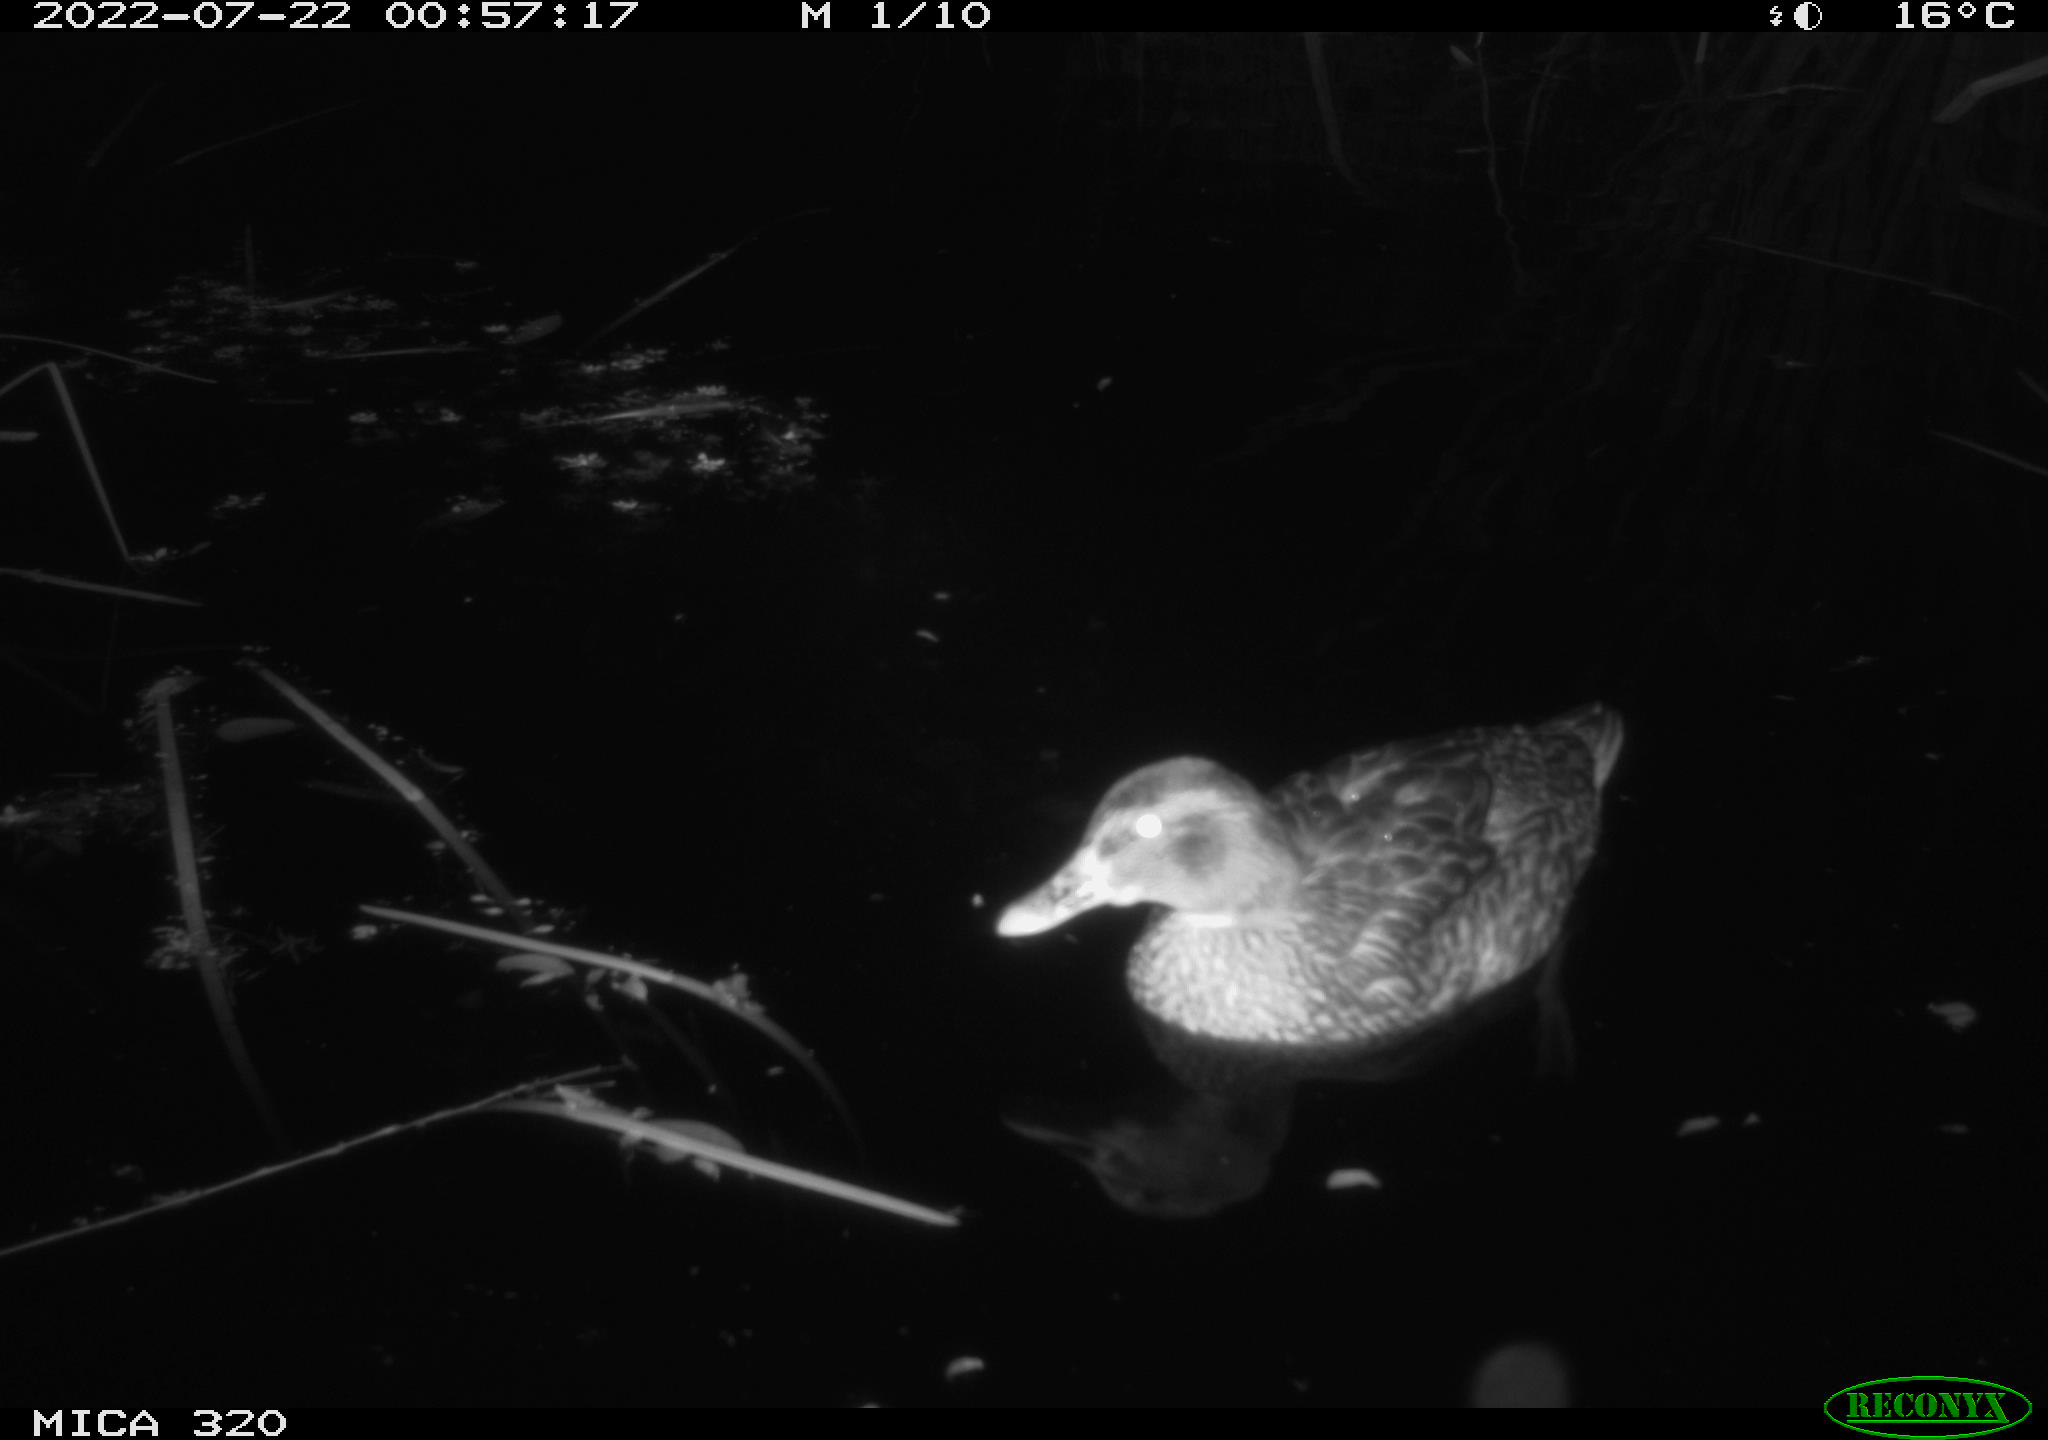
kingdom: Animalia
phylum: Chordata
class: Aves
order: Anseriformes
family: Anatidae
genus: Anas
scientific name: Anas platyrhynchos
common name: Mallard
